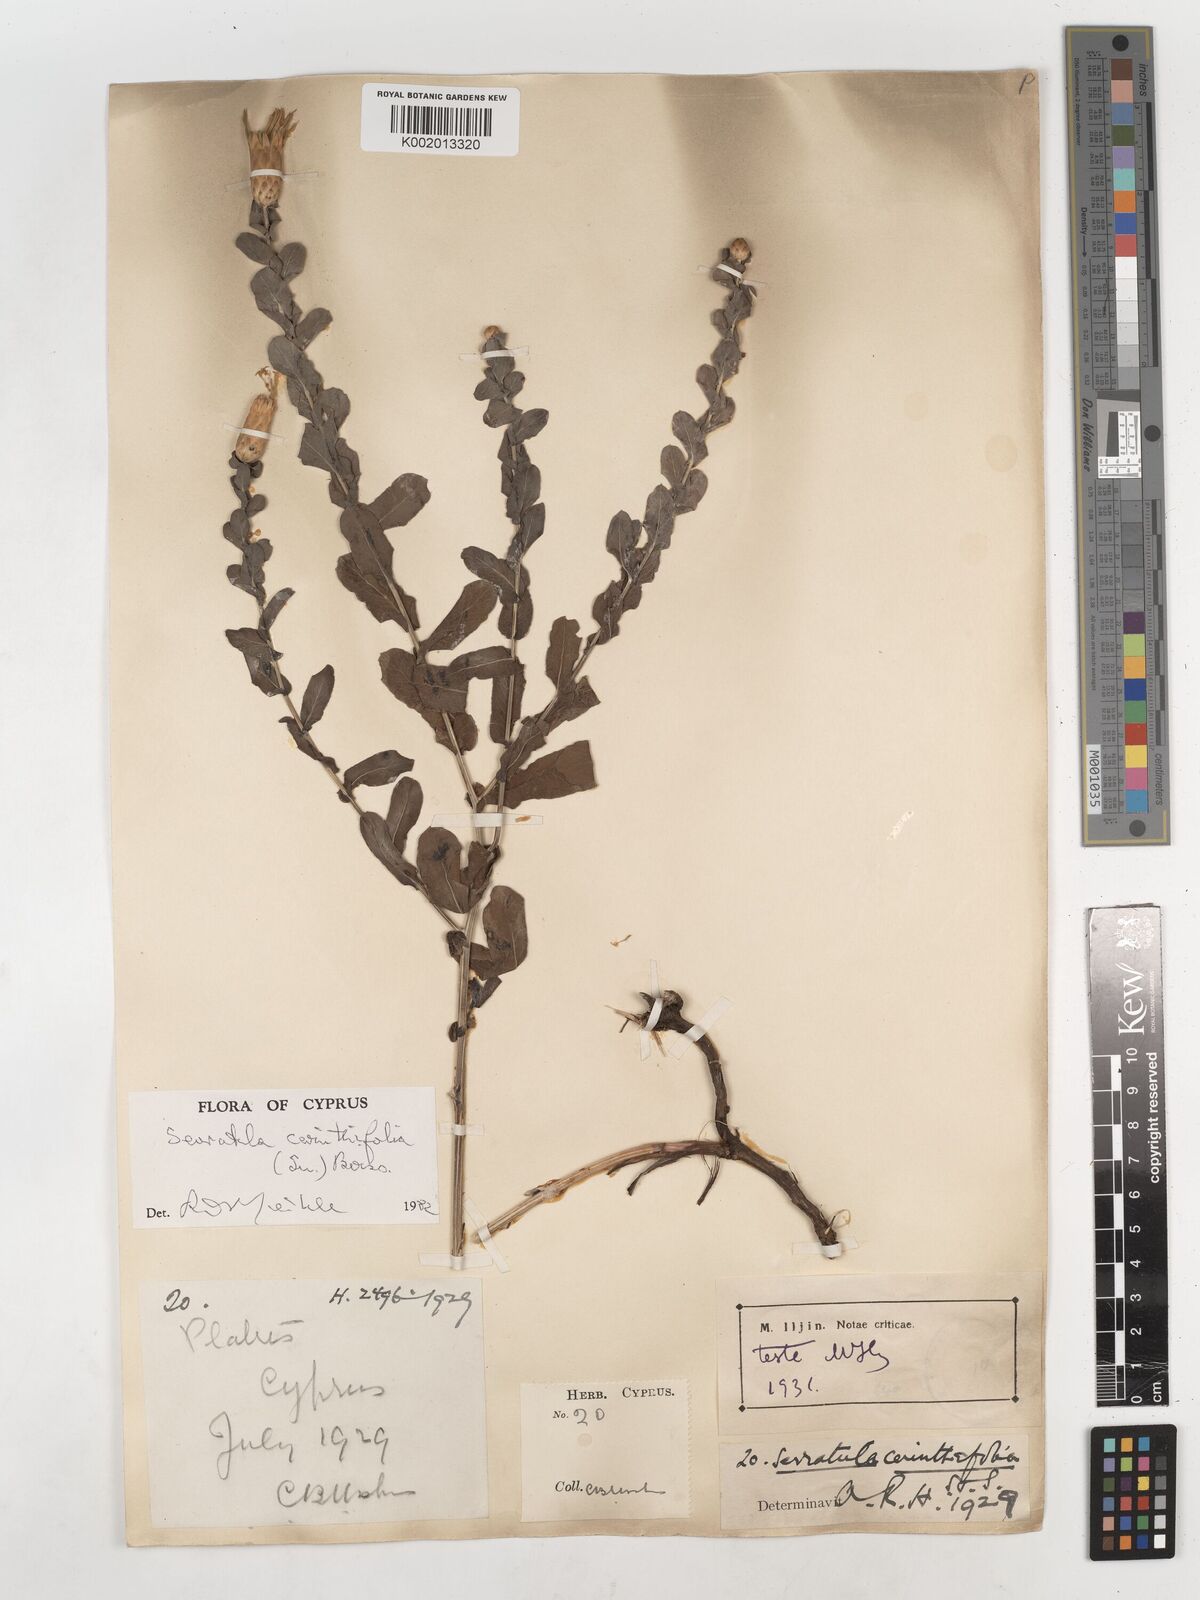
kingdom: Plantae
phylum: Tracheophyta
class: Magnoliopsida
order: Asterales
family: Asteraceae
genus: Klasea
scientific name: Klasea cerinthifolia
